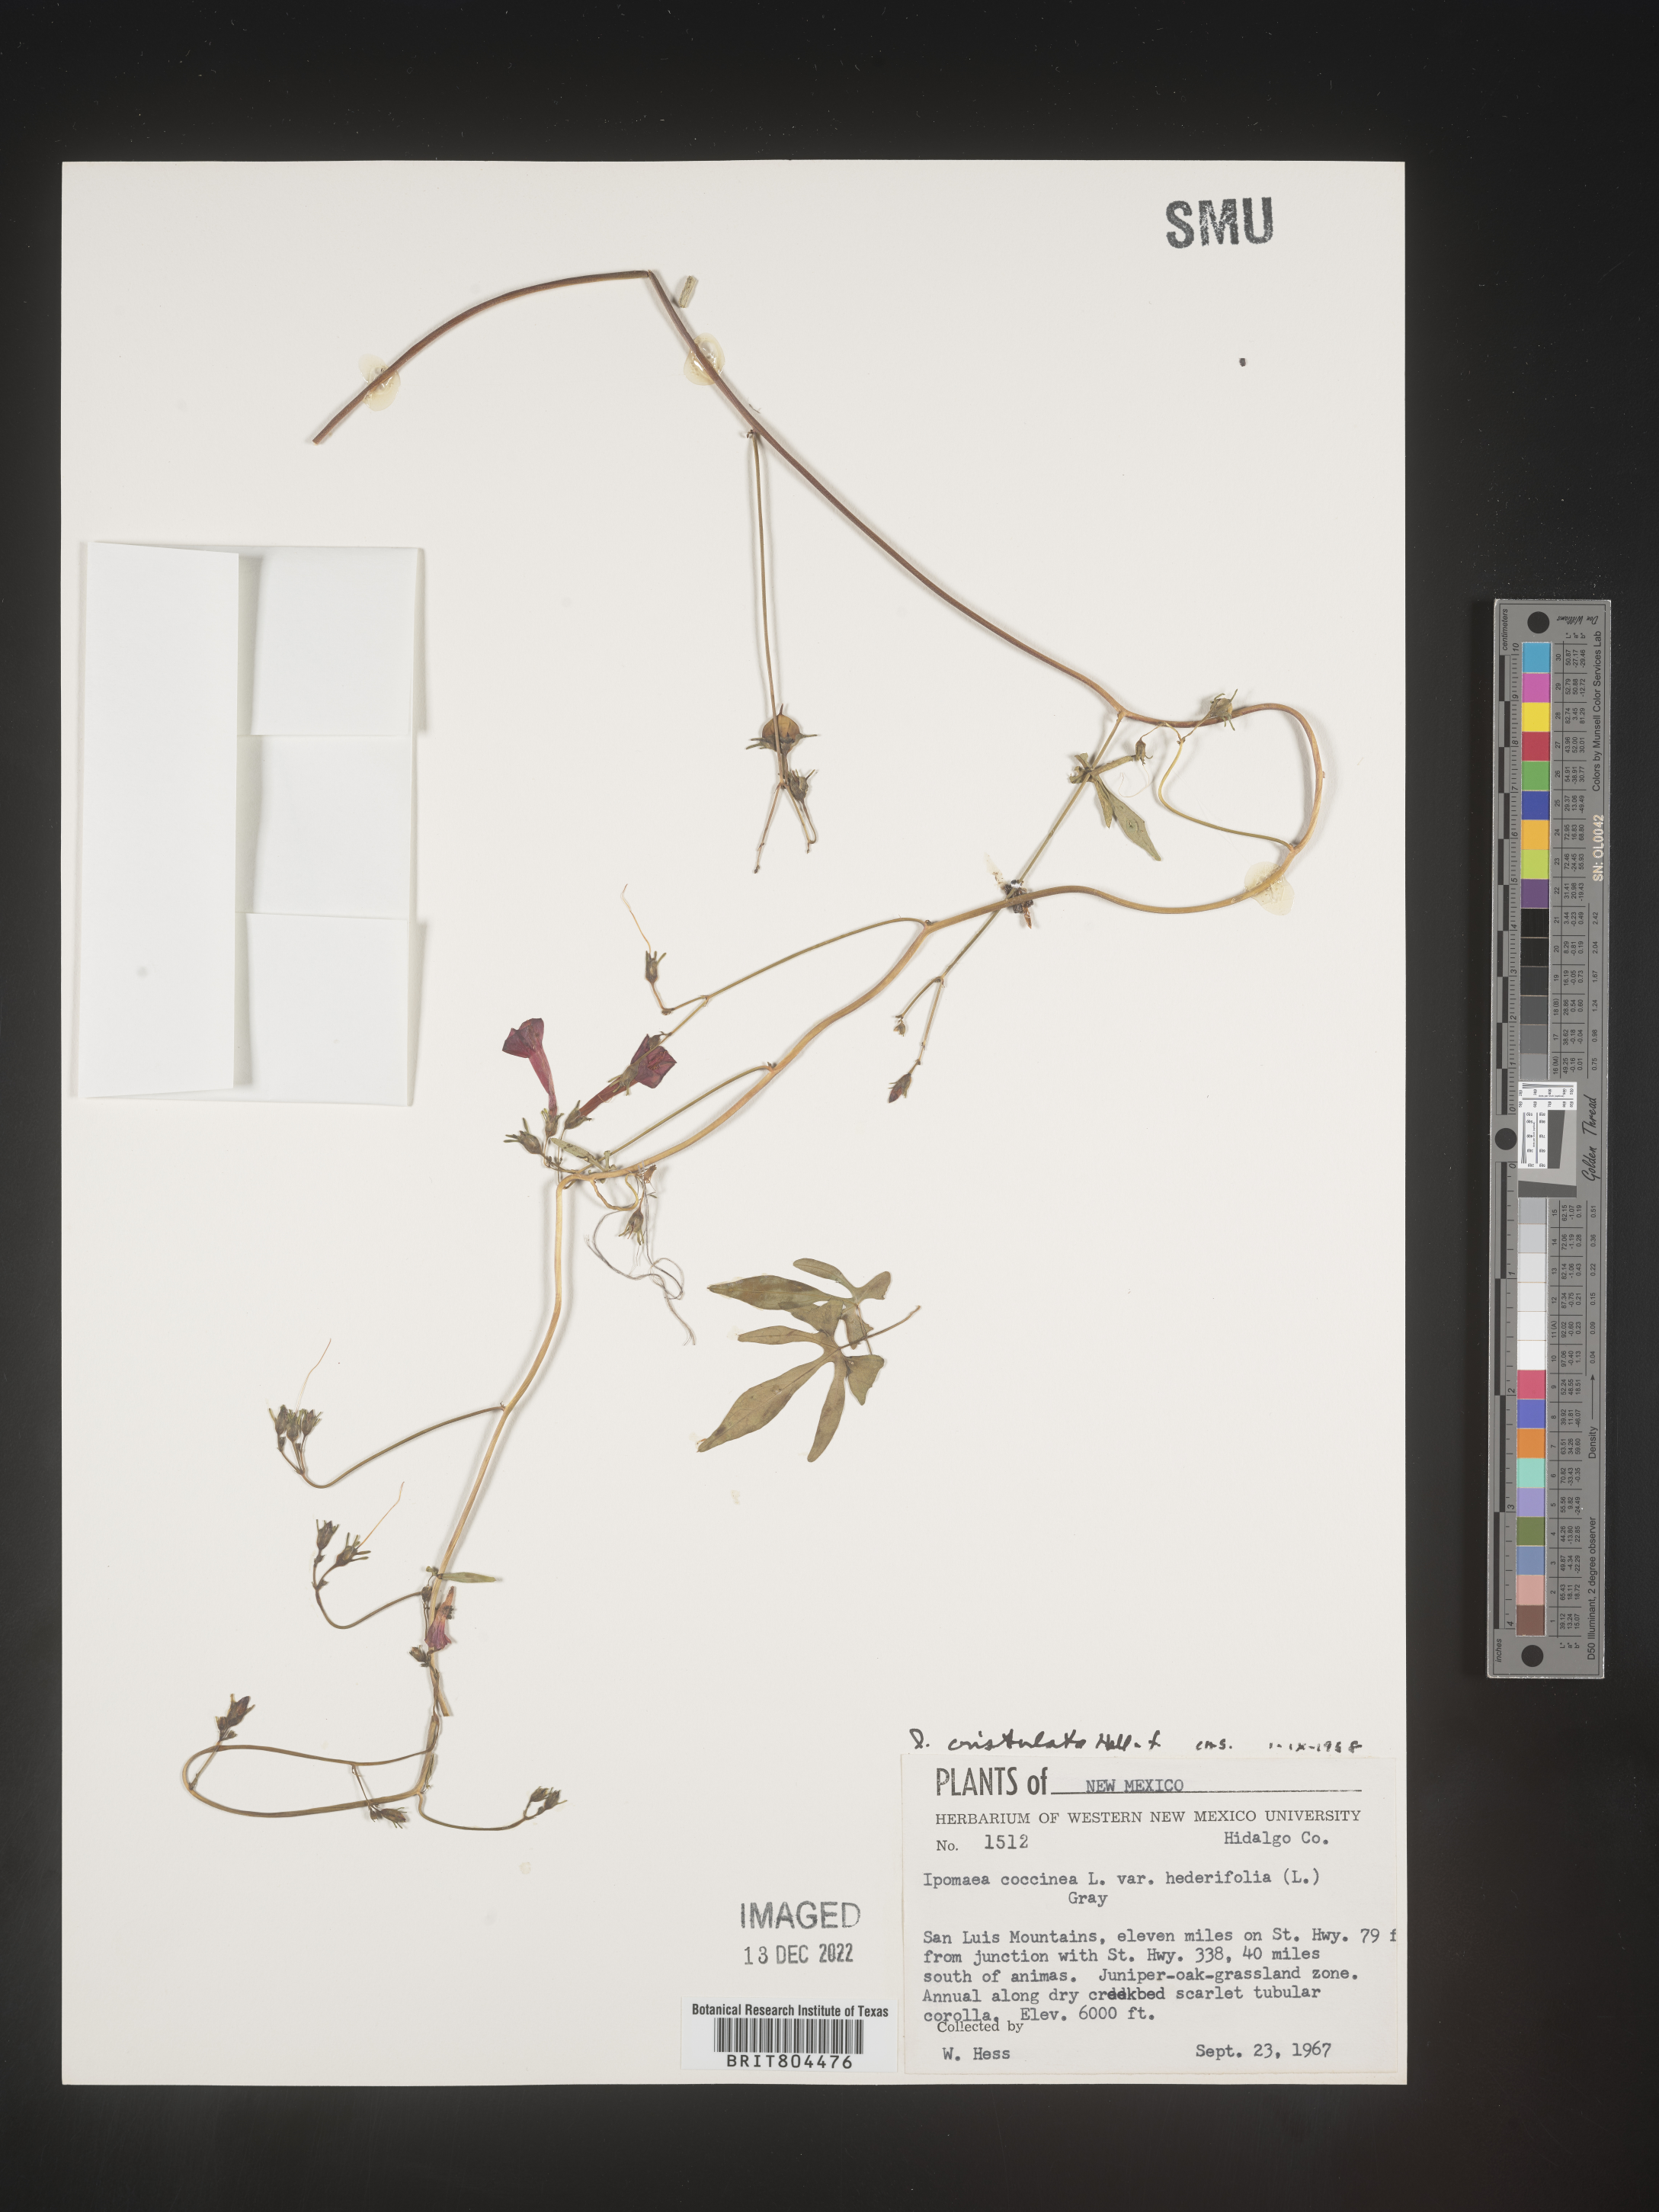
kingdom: Plantae
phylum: Tracheophyta
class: Magnoliopsida
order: Solanales
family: Convolvulaceae
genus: Ipomoea
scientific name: Ipomoea cristulata
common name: Trans-pecos morning-glory
